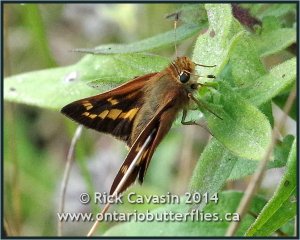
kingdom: Animalia
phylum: Arthropoda
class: Insecta
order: Lepidoptera
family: Hesperiidae
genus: Hesperia
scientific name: Hesperia leonardus
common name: Leonard's Skipper
